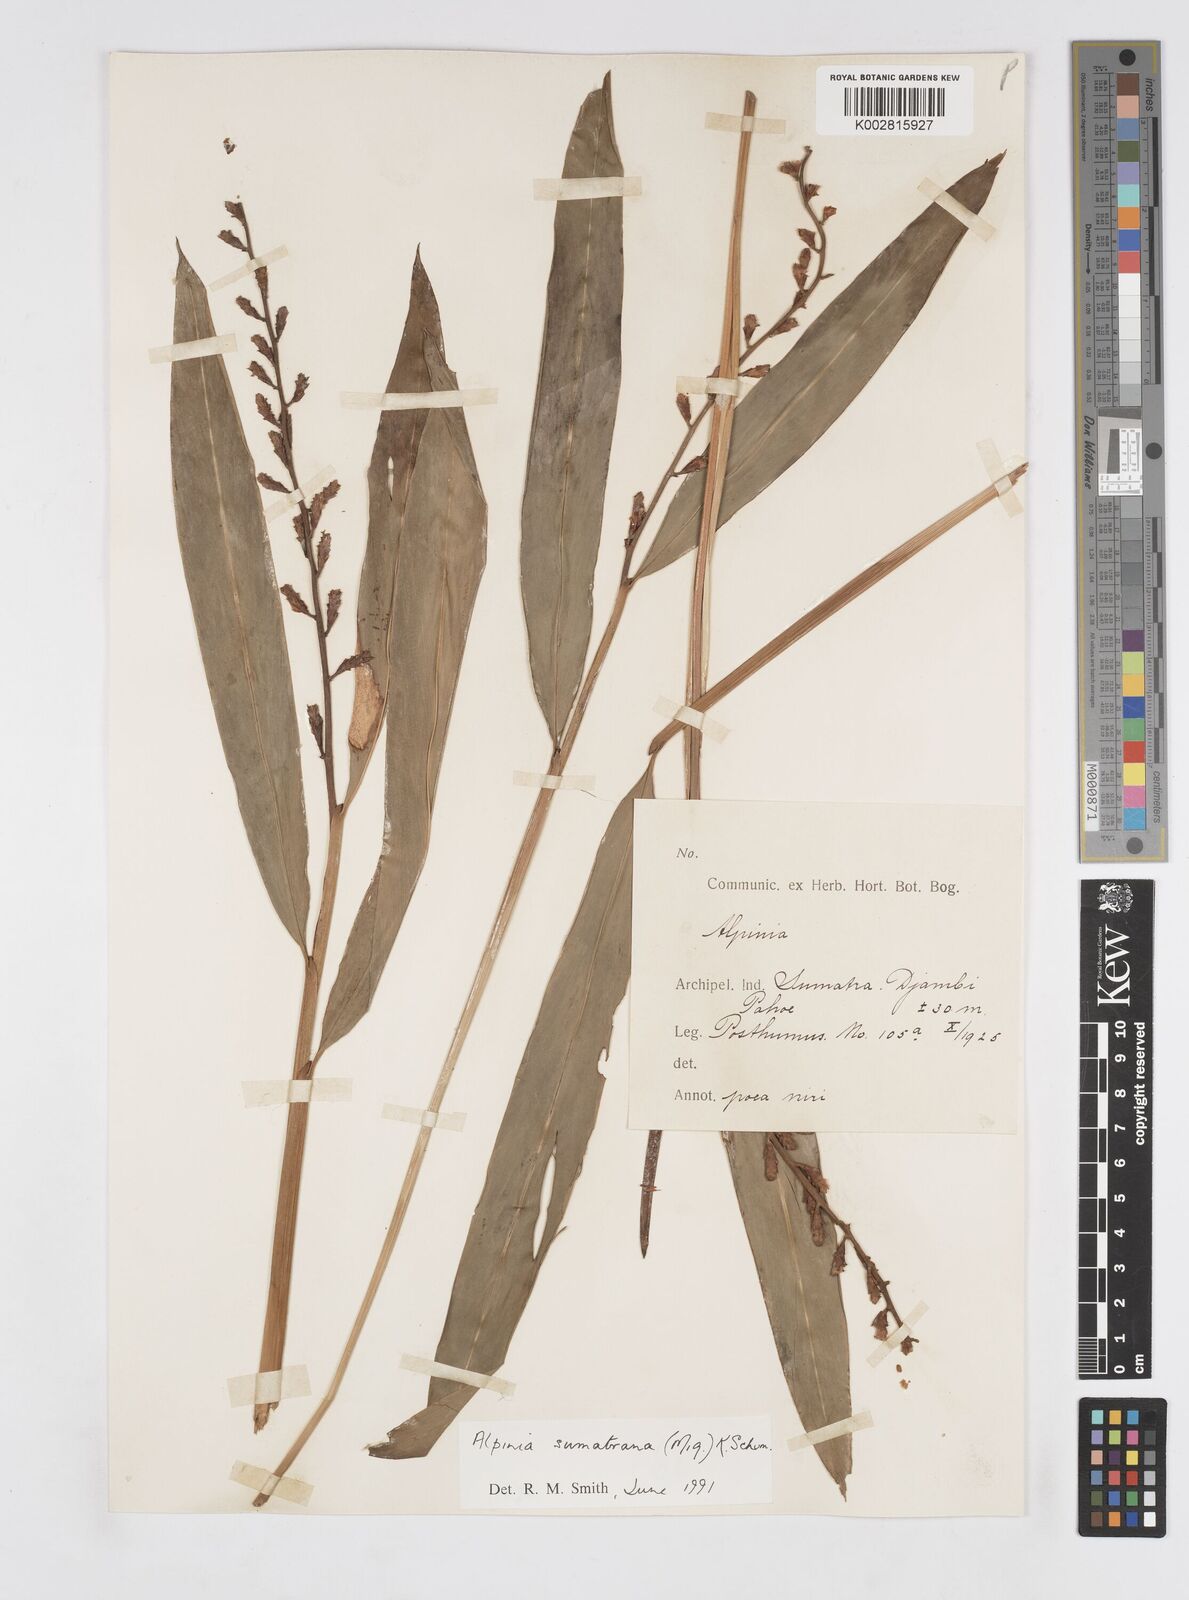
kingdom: Plantae
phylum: Tracheophyta
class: Liliopsida
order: Zingiberales
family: Zingiberaceae
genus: Alpinia
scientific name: Alpinia conchigera
